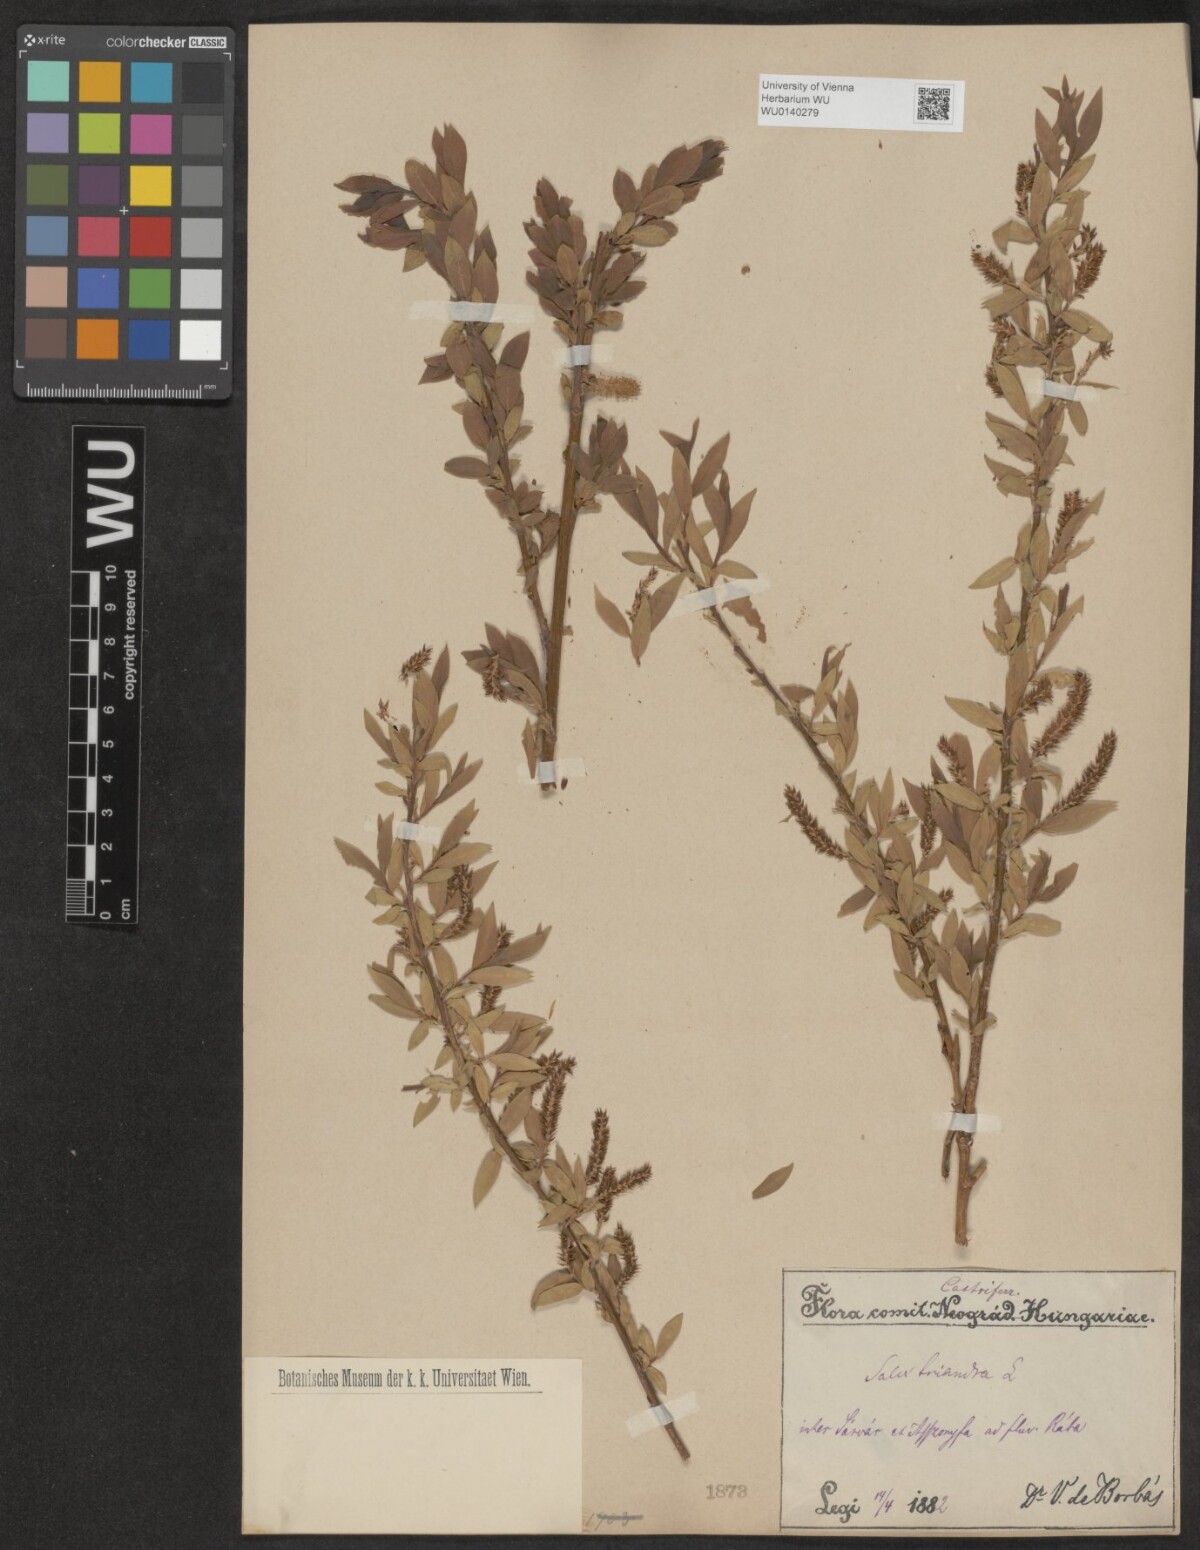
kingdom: Plantae
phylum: Tracheophyta
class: Magnoliopsida
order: Malpighiales
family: Salicaceae
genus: Salix
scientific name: Salix triandra
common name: Almond willow
